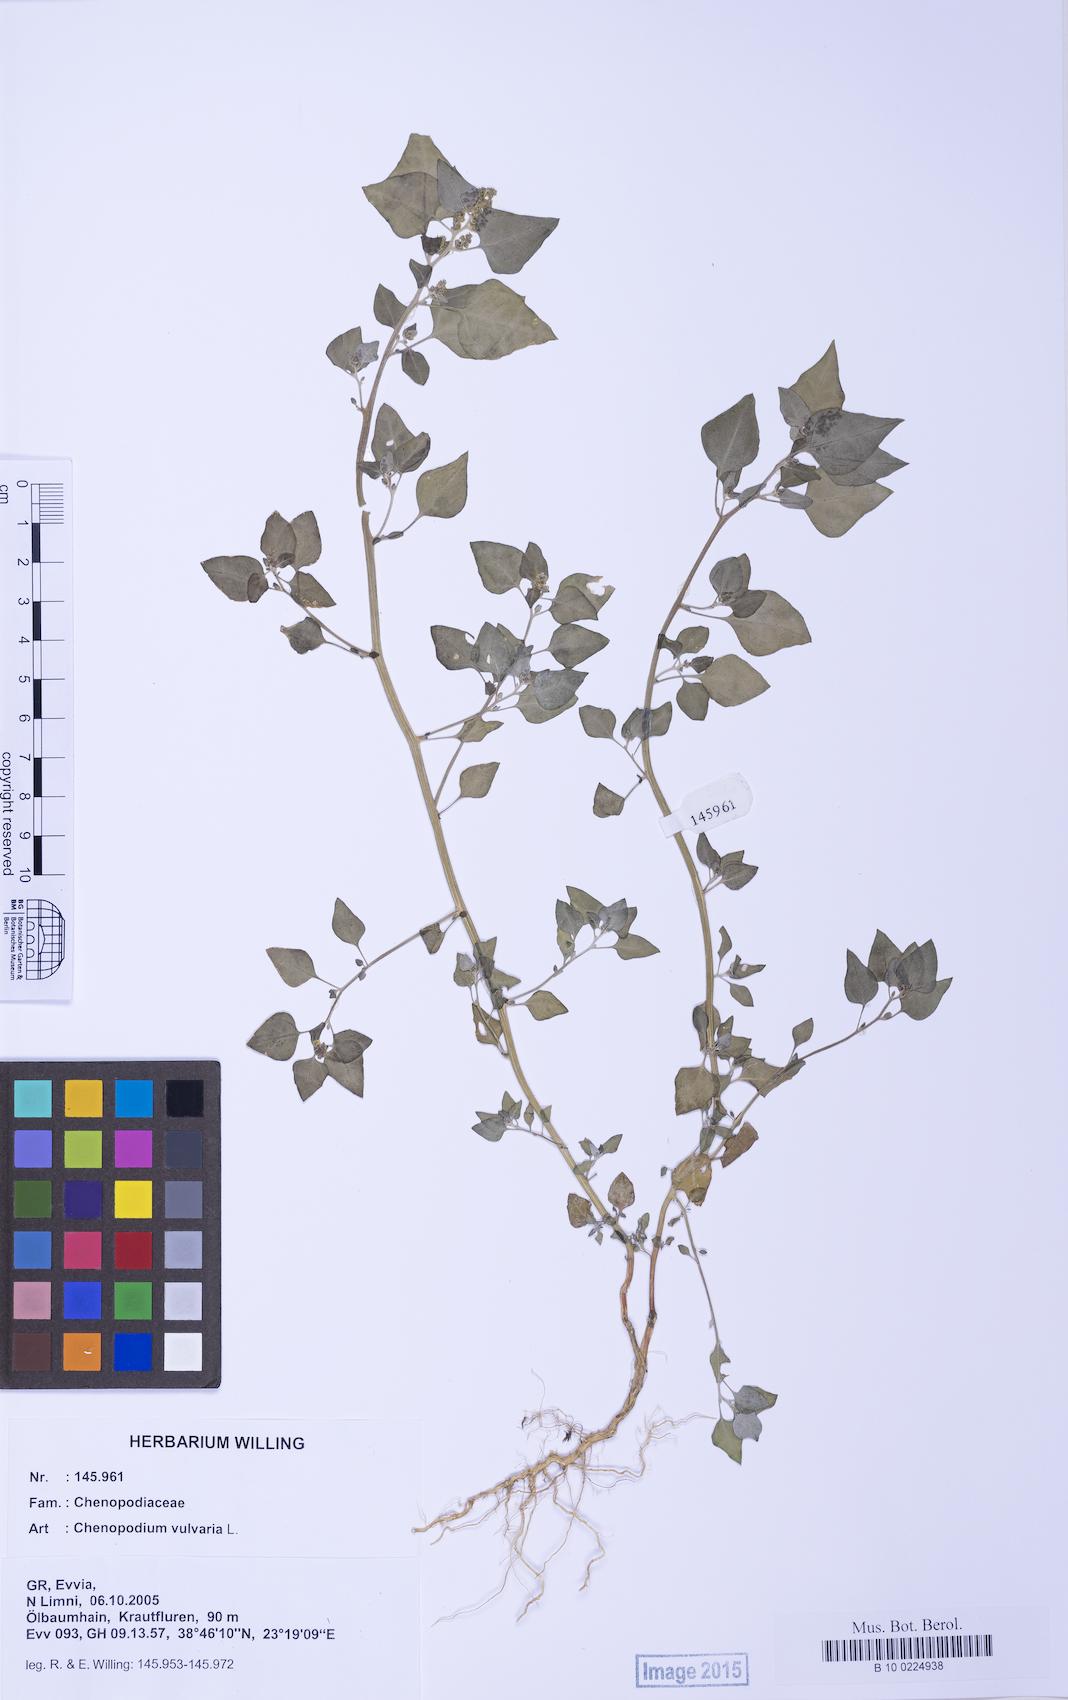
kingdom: Plantae
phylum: Tracheophyta
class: Magnoliopsida
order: Caryophyllales
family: Amaranthaceae
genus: Chenopodium
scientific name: Chenopodium vulvaria
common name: Stinking goosefoot
